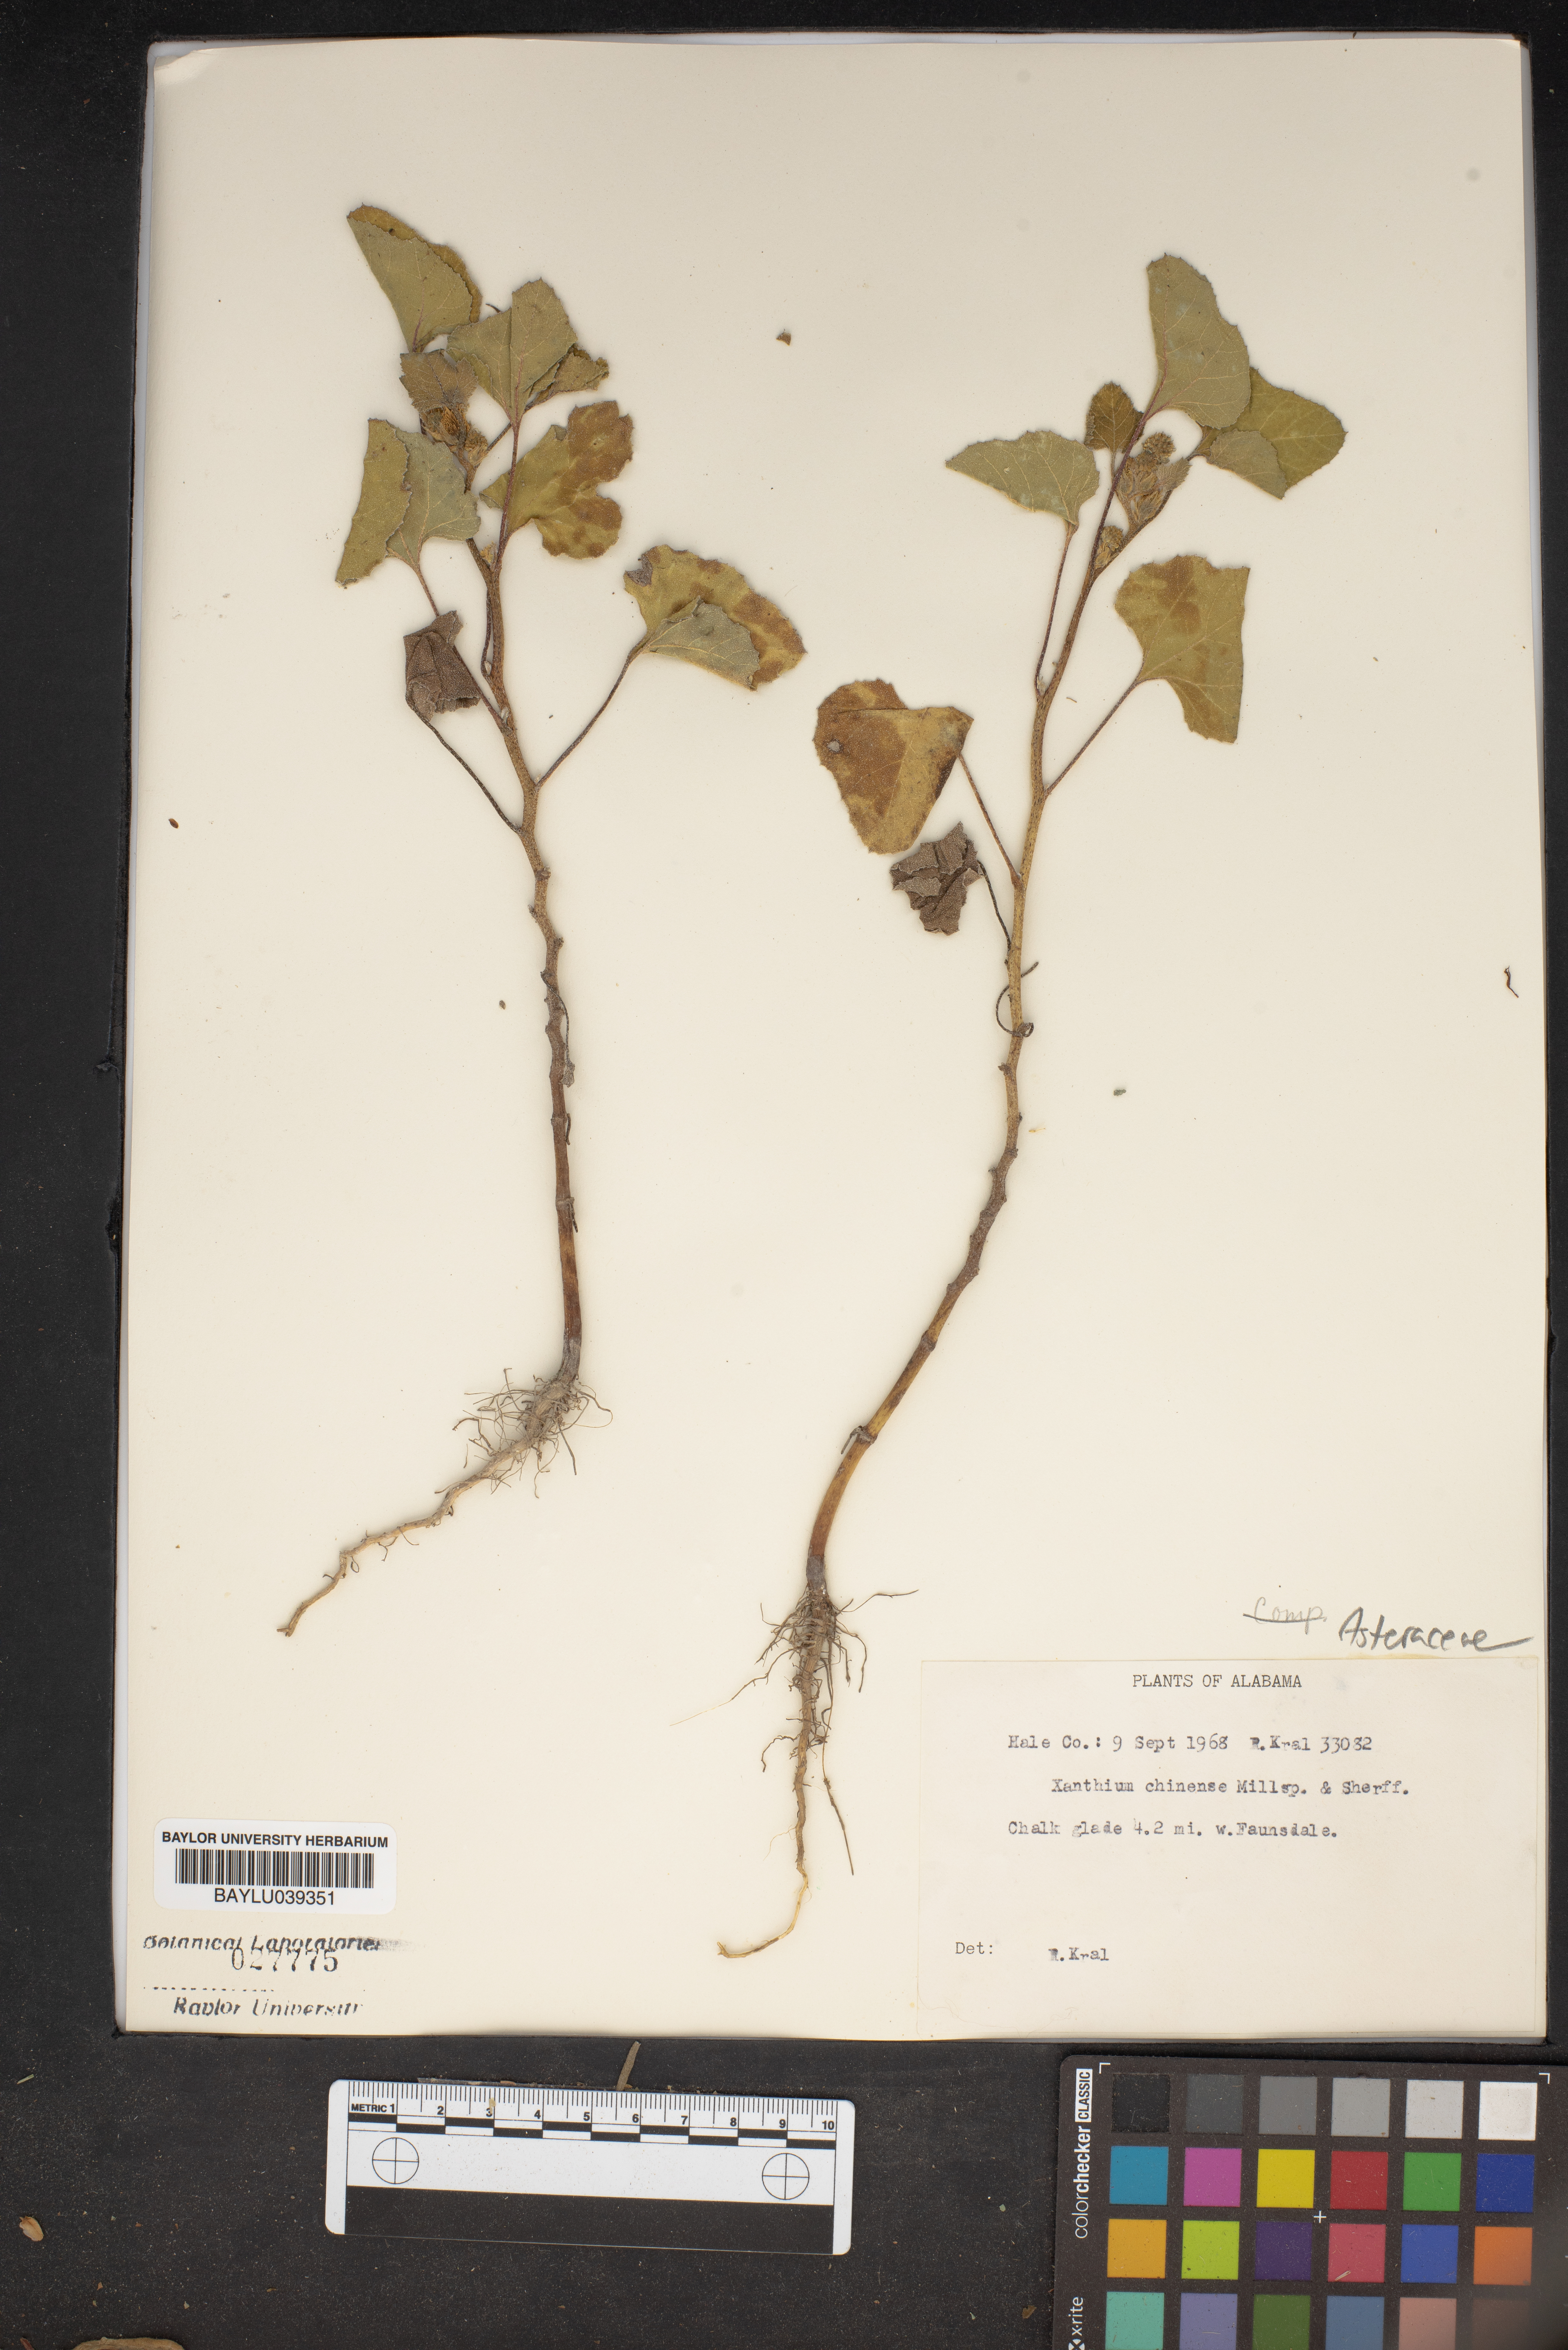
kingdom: Plantae
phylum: Tracheophyta
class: Magnoliopsida
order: Asterales
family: Asteraceae
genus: Xanthium
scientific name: Xanthium occidentale
